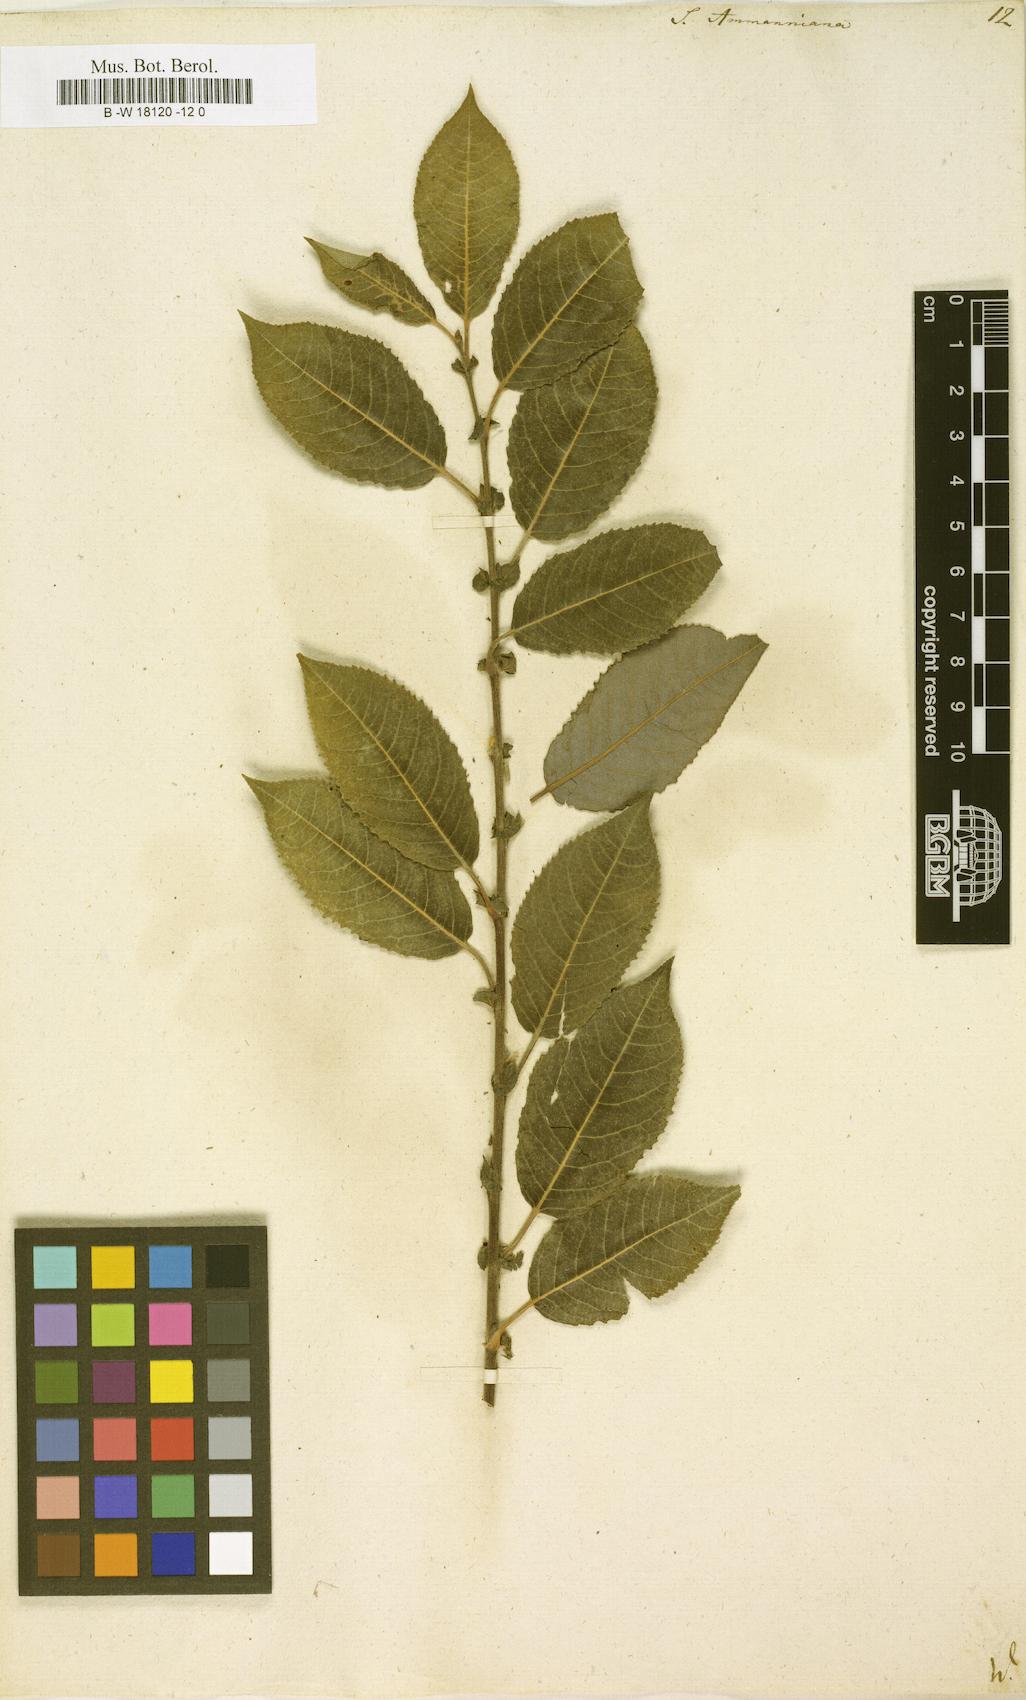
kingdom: Plantae
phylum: Tracheophyta
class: Magnoliopsida
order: Malpighiales
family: Salicaceae
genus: Salix
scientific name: Salix myrsinifolia
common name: Dark-leaved willow
